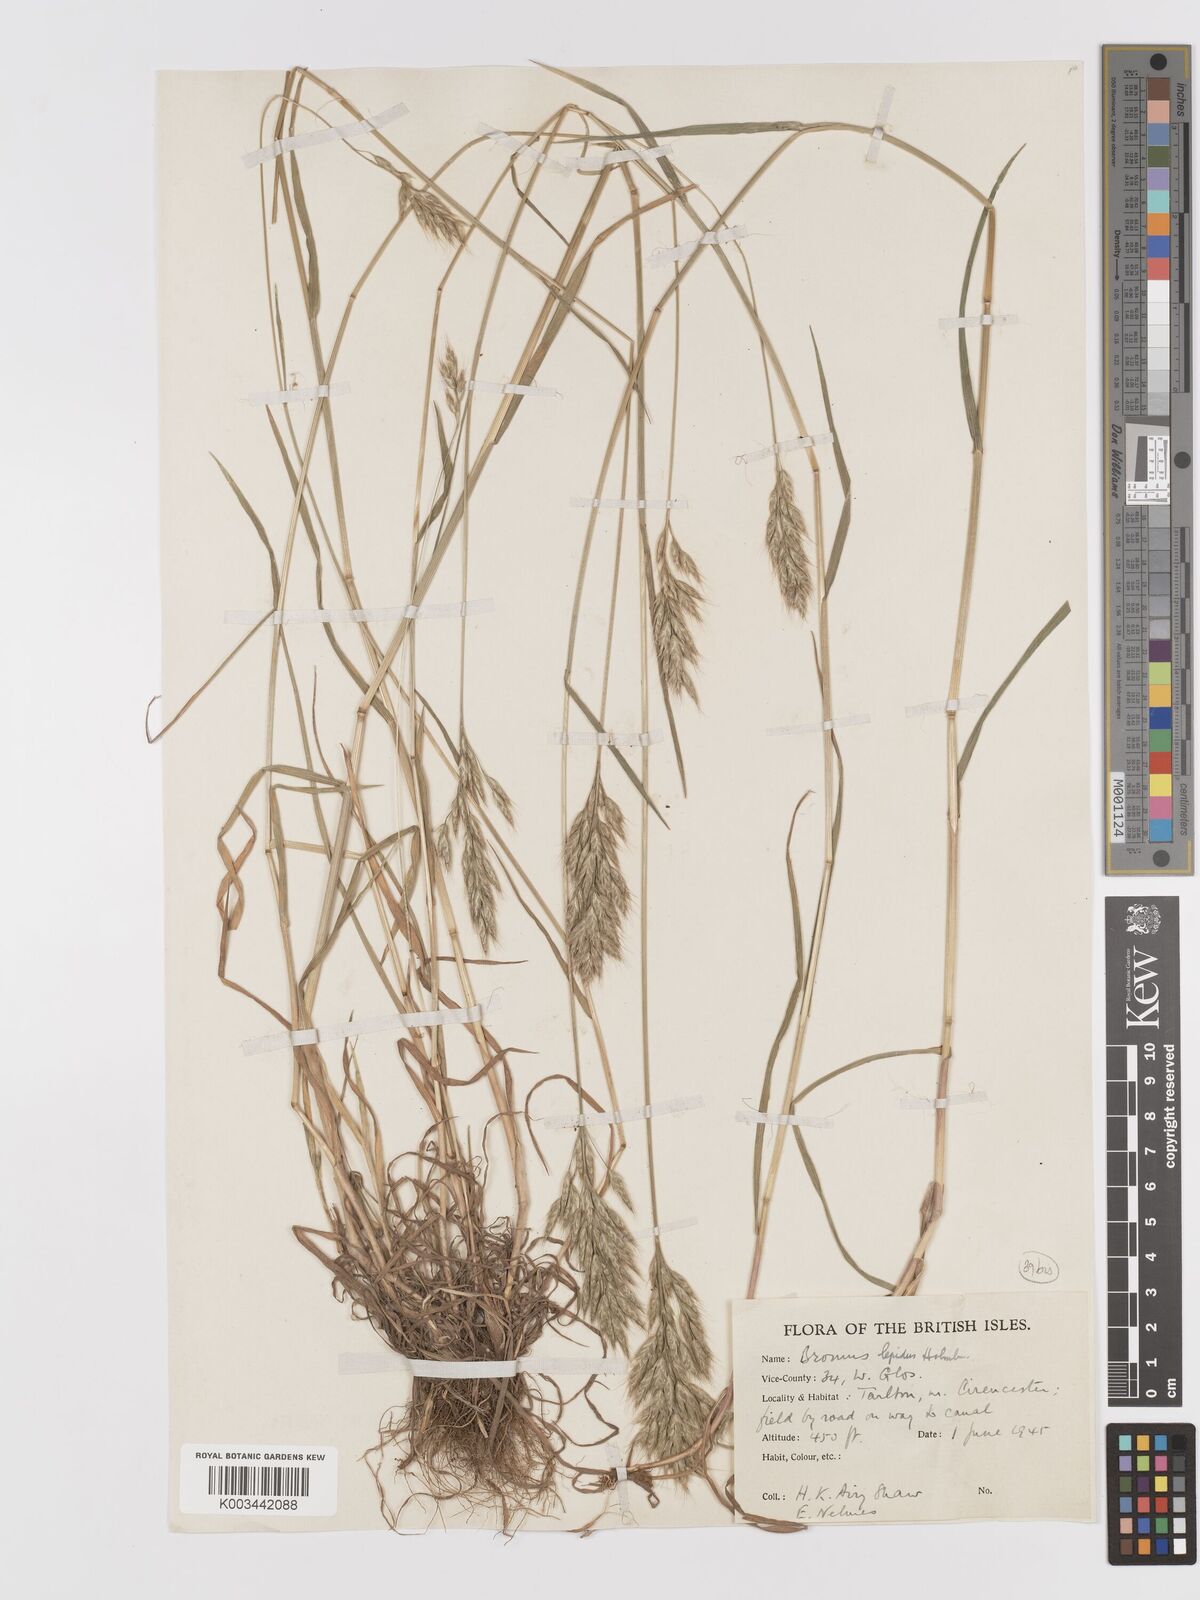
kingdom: Plantae
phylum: Tracheophyta
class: Liliopsida
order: Poales
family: Poaceae
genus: Bromus
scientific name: Bromus lepidus
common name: Slender soft-brome
